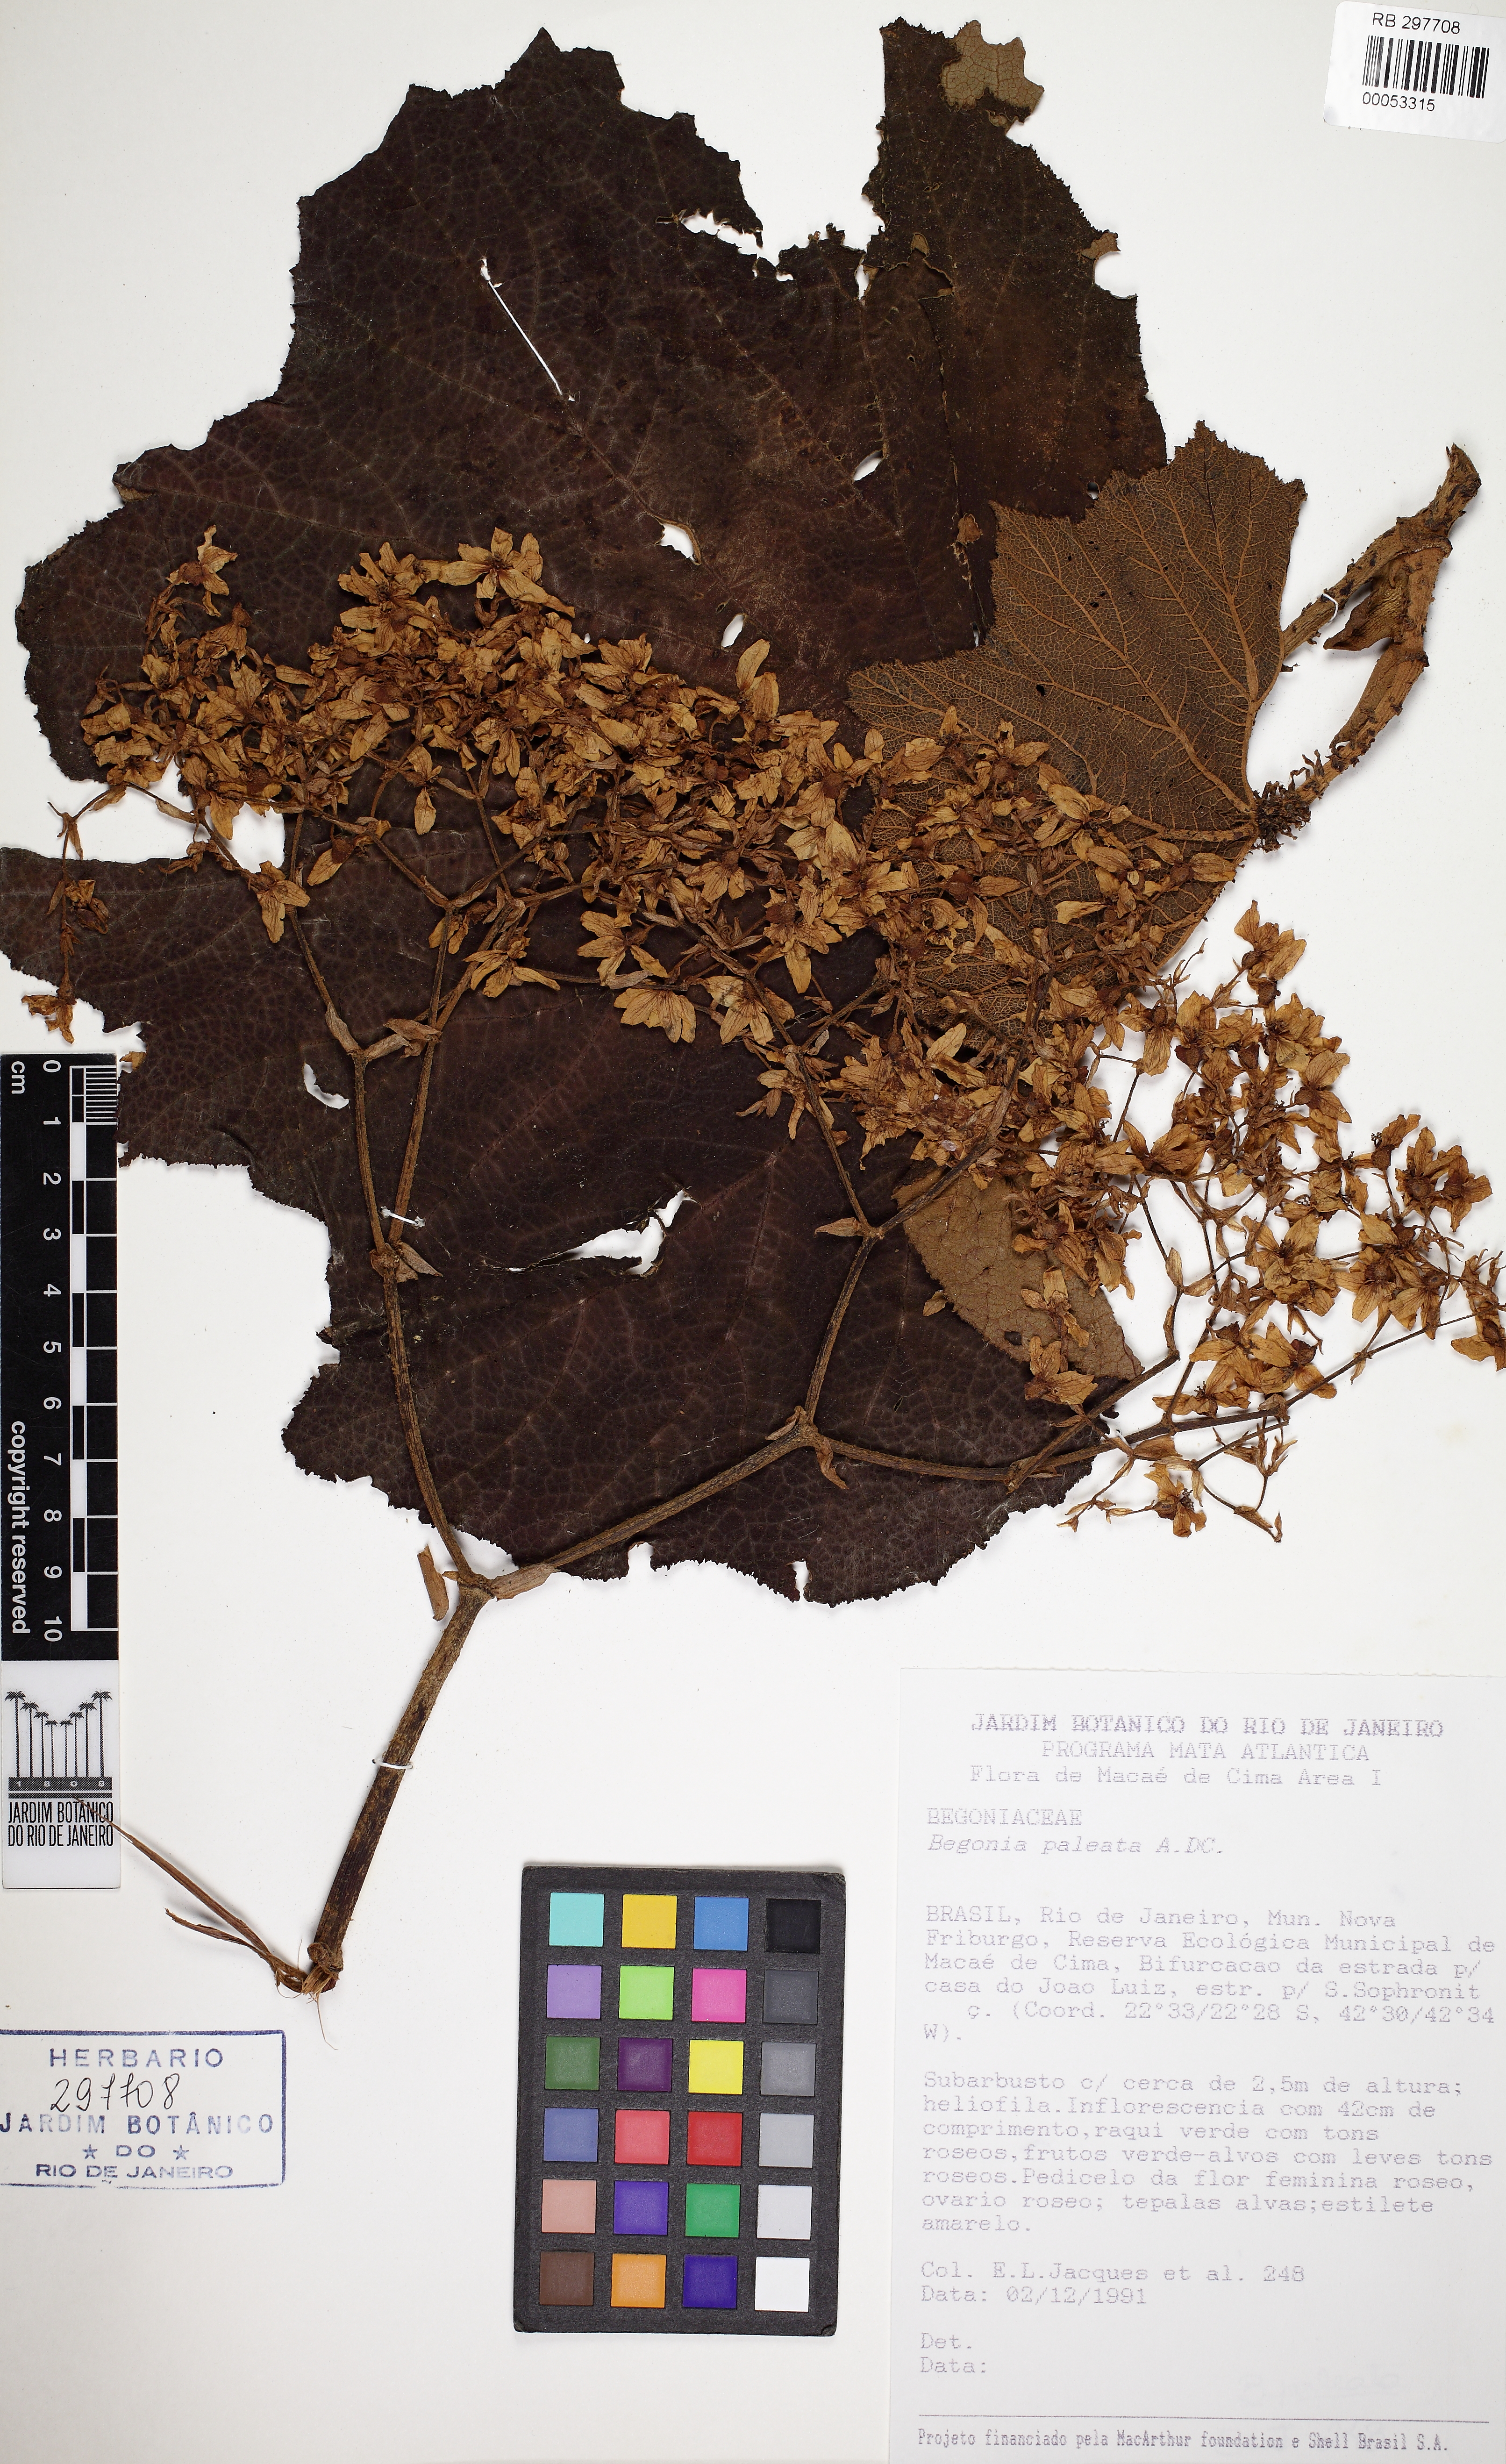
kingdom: Plantae
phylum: Tracheophyta
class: Magnoliopsida
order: Cucurbitales
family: Begoniaceae
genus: Begonia
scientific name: Begonia paleata
